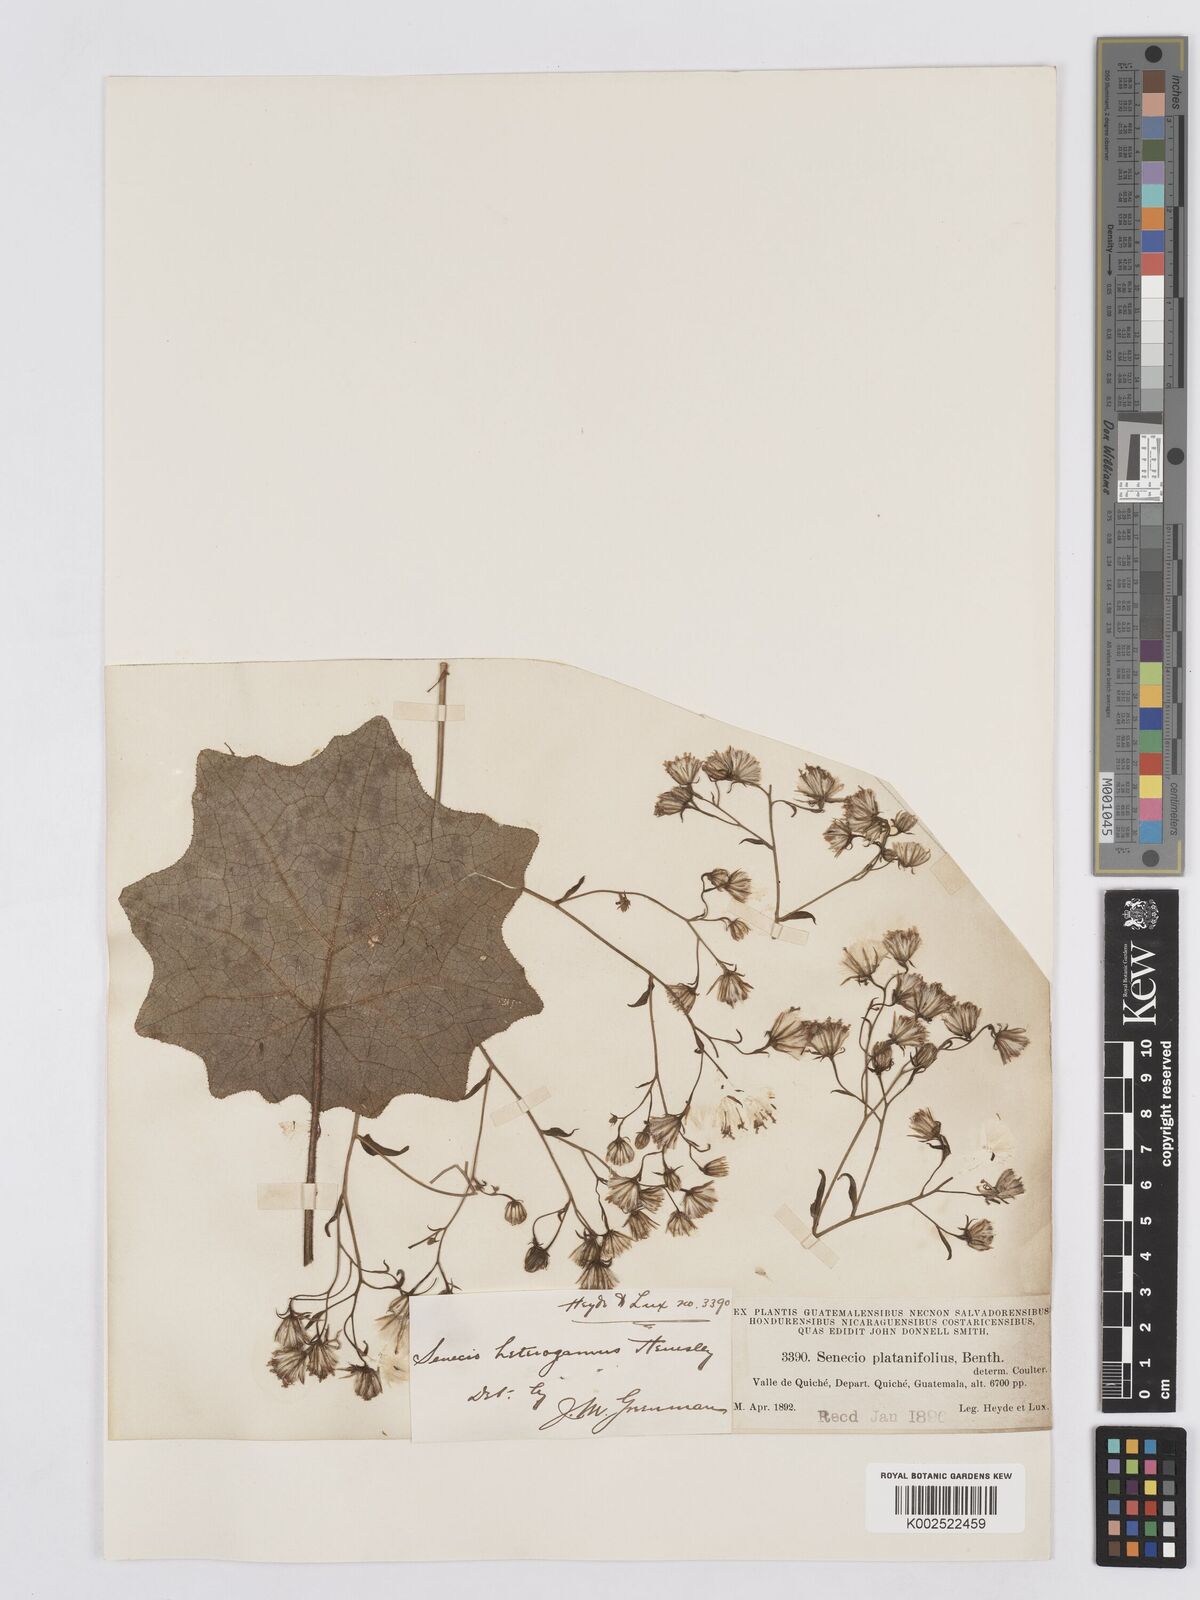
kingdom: Plantae
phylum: Tracheophyta
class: Magnoliopsida
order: Asterales
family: Asteraceae
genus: Roldana
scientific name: Roldana heterogama
